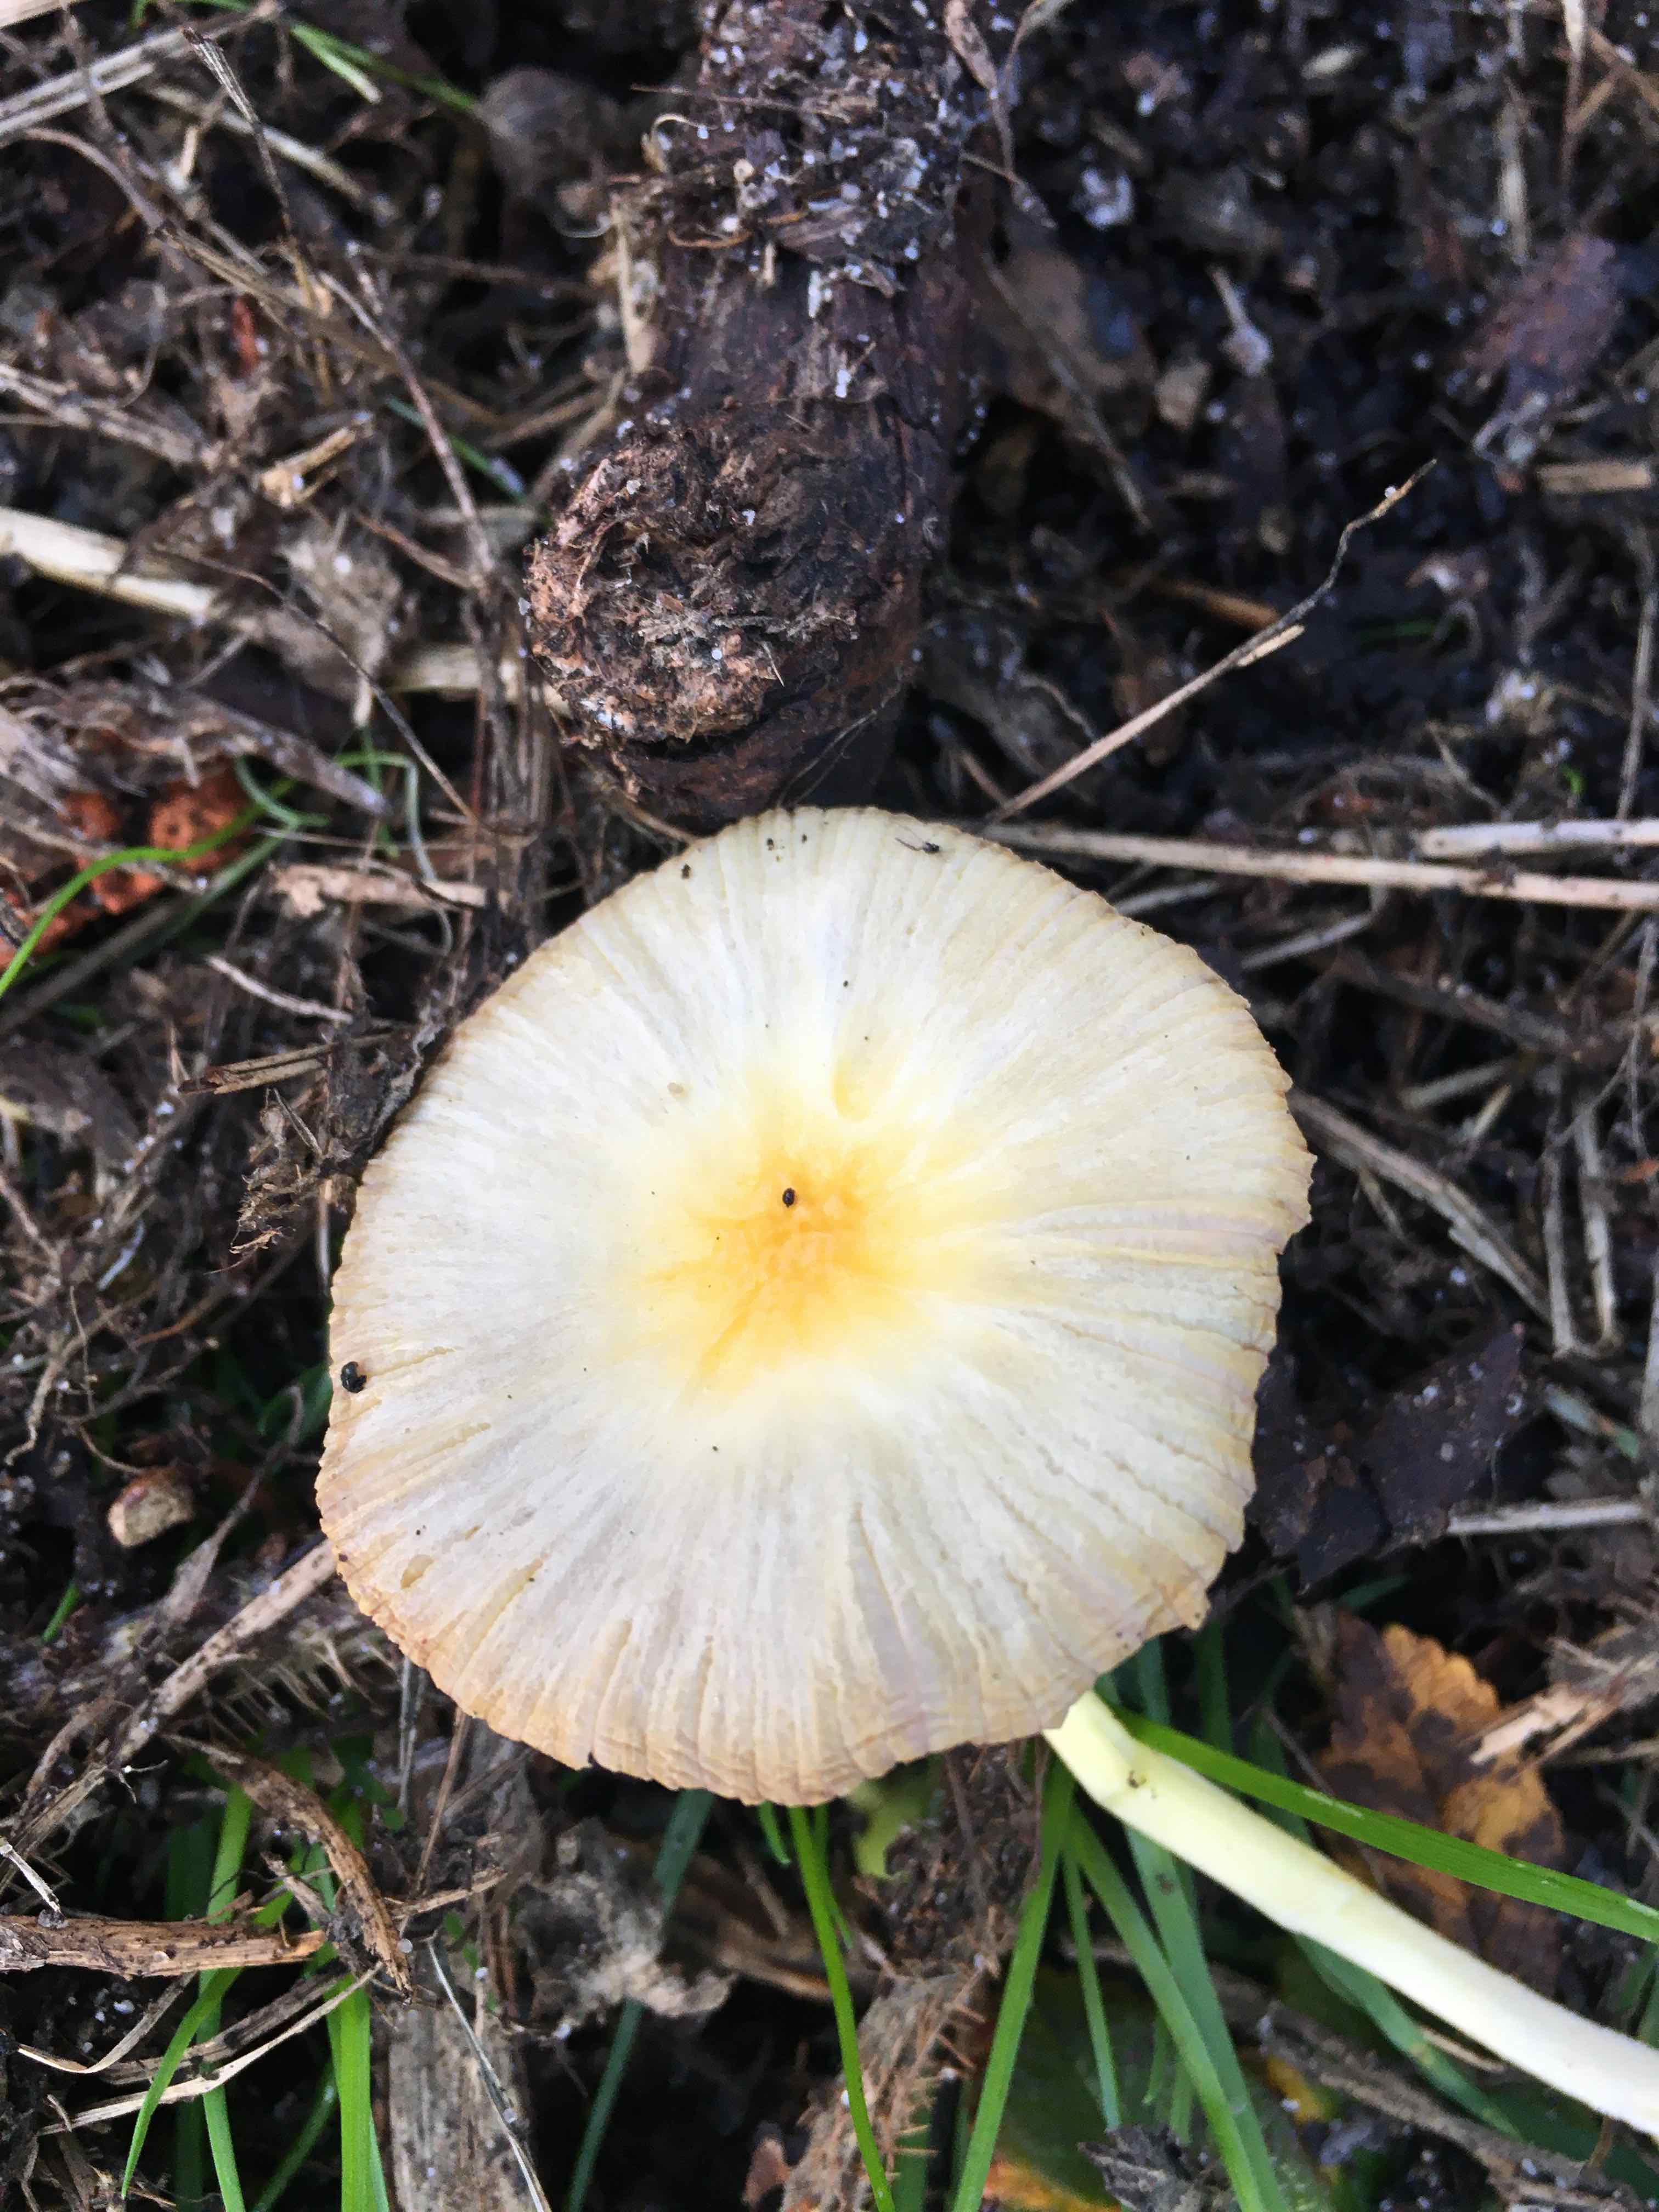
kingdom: Fungi
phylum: Basidiomycota
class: Agaricomycetes
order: Agaricales
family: Bolbitiaceae
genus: Bolbitius
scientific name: Bolbitius titubans
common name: almindelig gulhat
